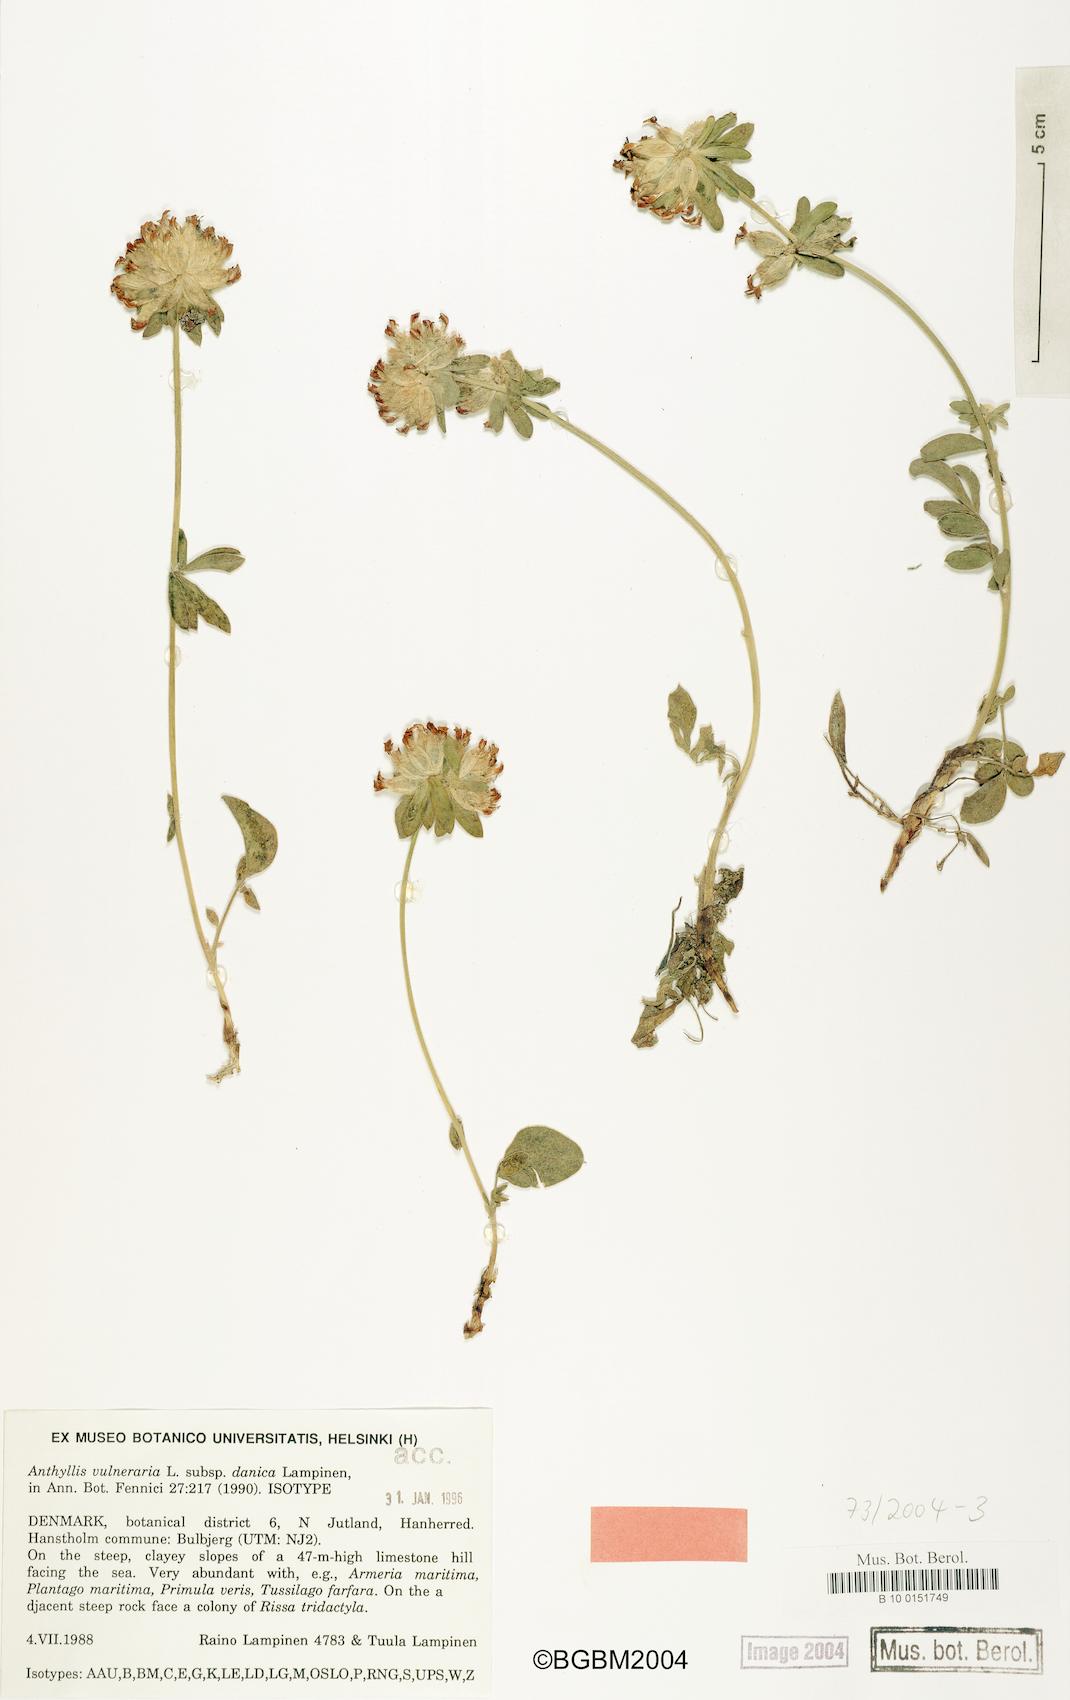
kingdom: Plantae
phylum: Tracheophyta
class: Magnoliopsida
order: Fabales
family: Fabaceae
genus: Anthyllis
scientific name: Anthyllis vulneraria
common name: Kidney vetch
